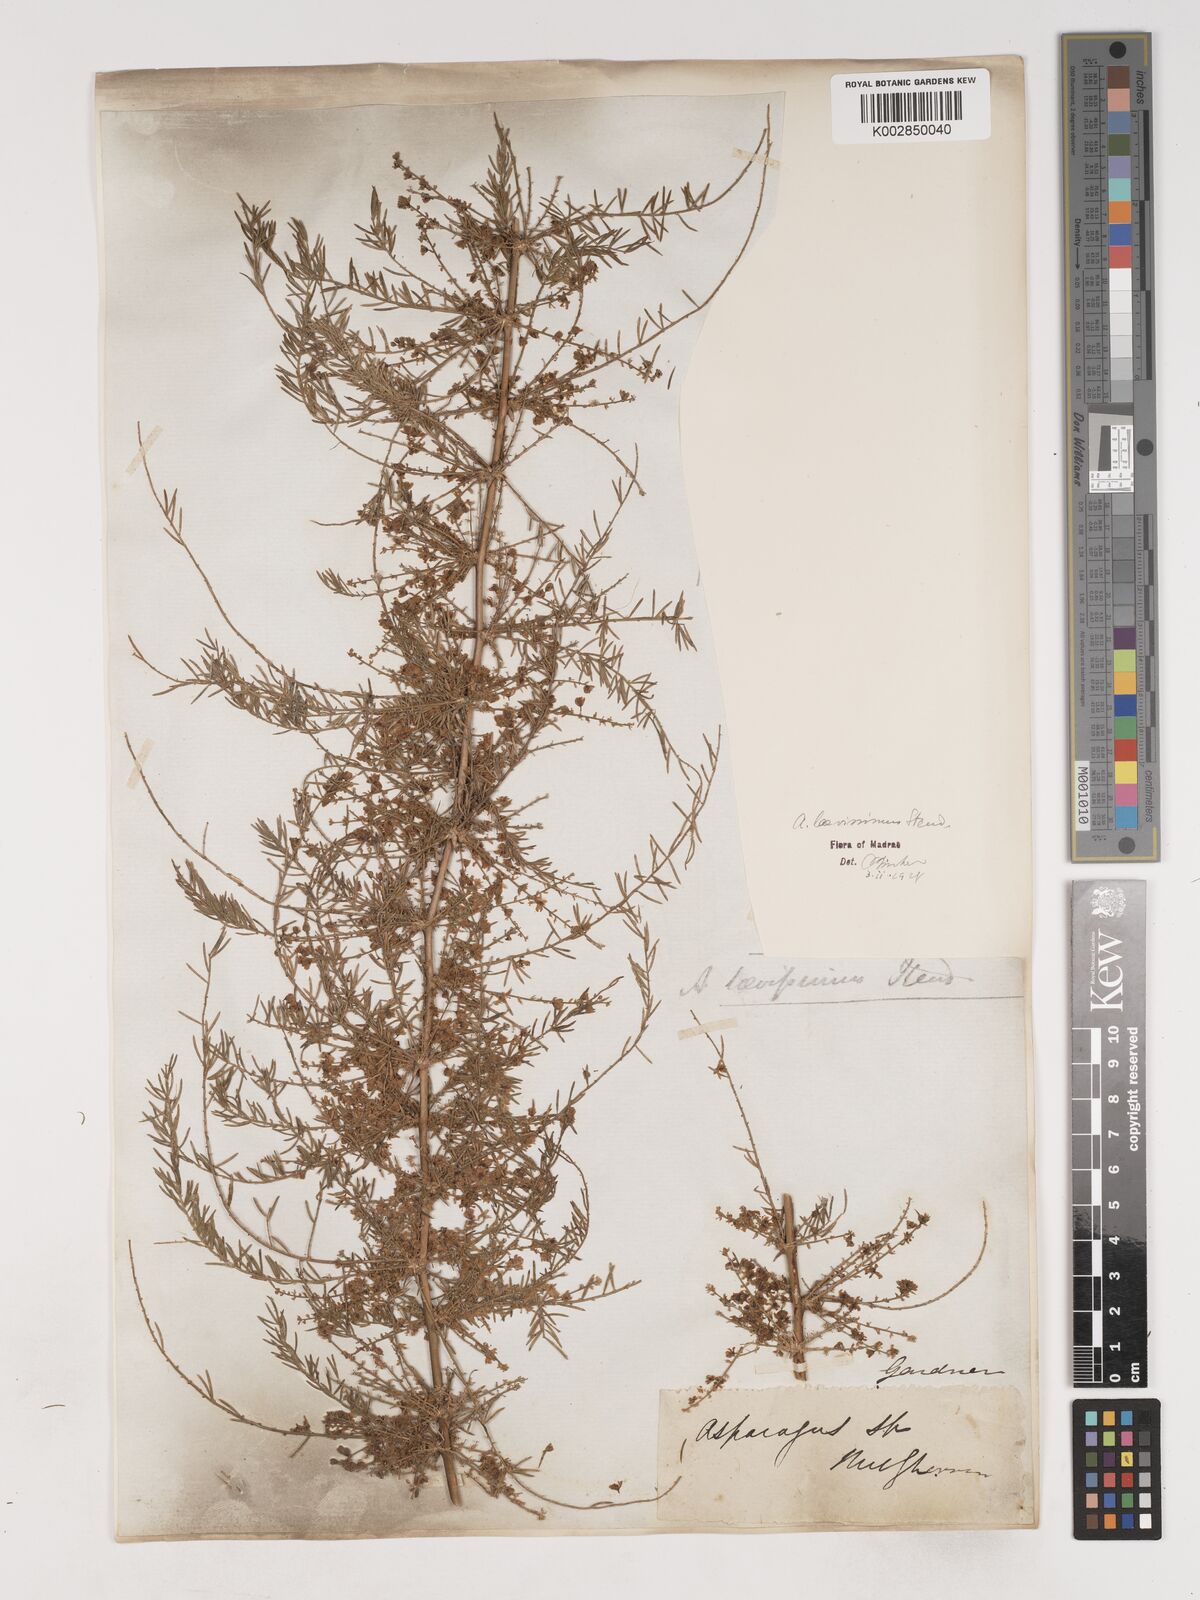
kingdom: Plantae
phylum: Tracheophyta
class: Liliopsida
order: Asparagales
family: Asparagaceae
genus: Asparagus
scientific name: Asparagus laevissimus
